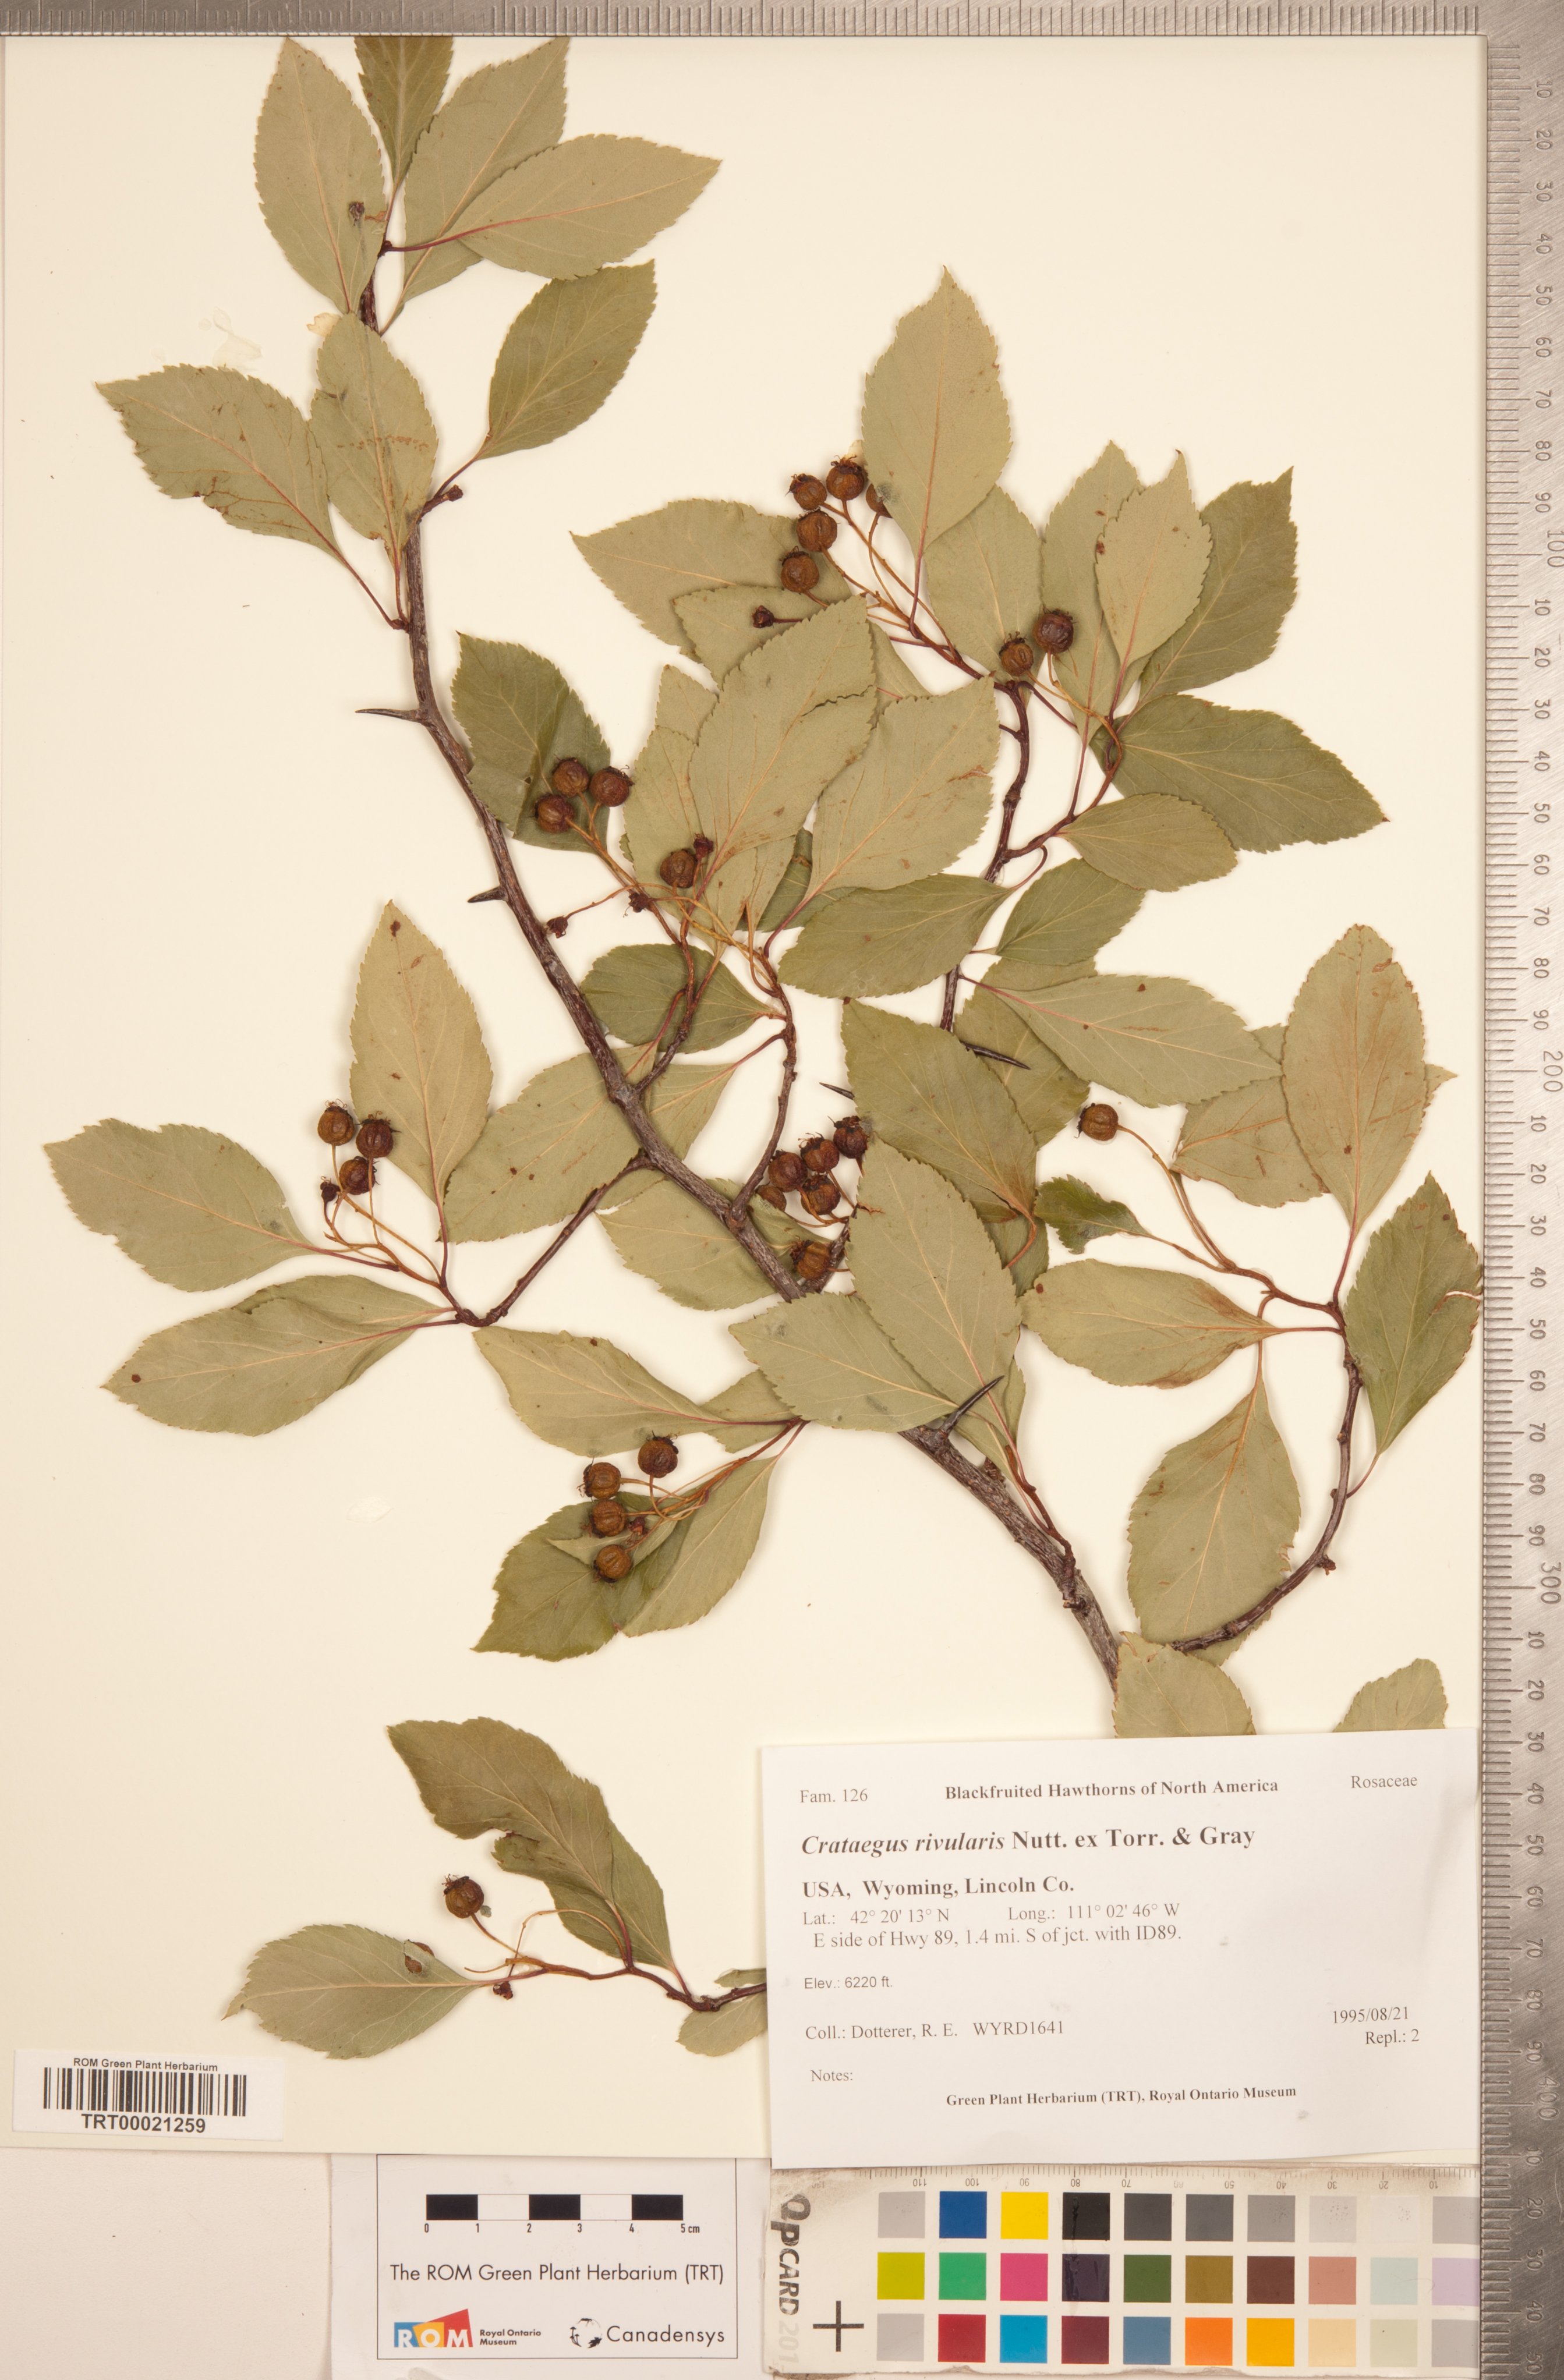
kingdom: Plantae
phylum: Tracheophyta
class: Magnoliopsida
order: Rosales
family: Rosaceae
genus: Crataegus
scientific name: Crataegus rivularis
